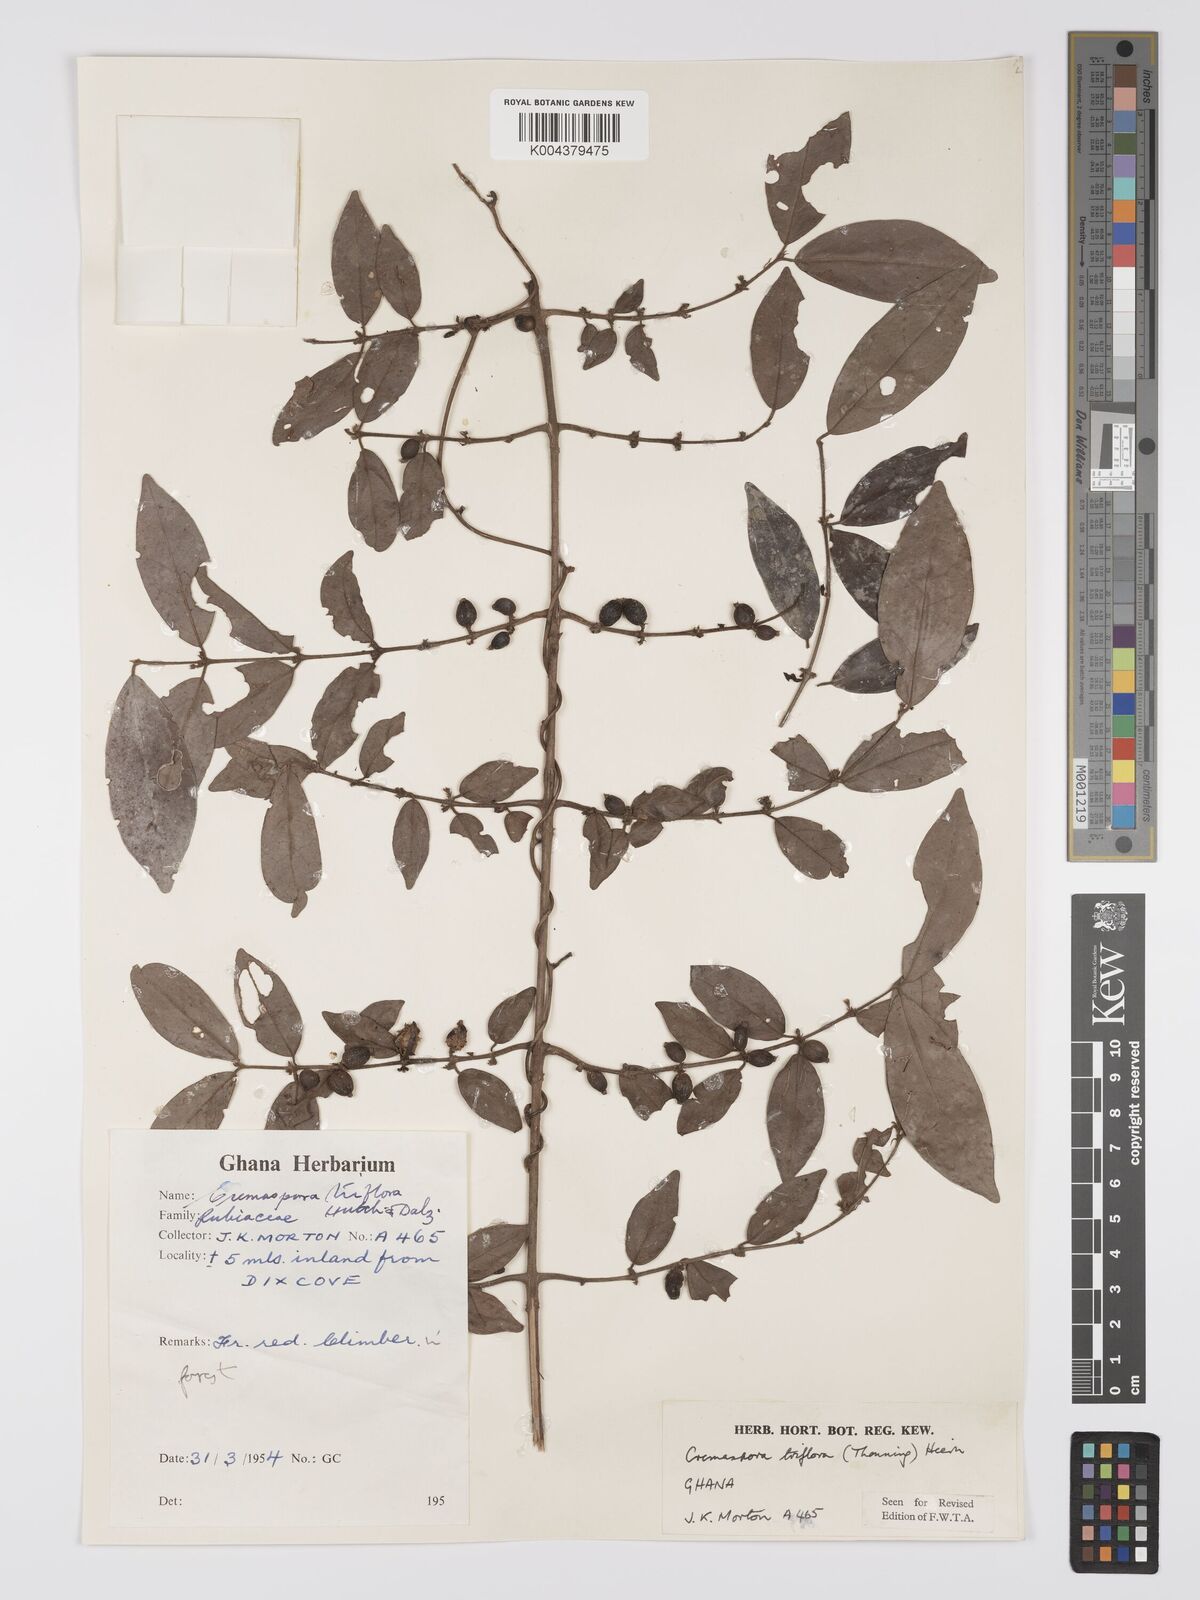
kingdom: Plantae
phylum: Tracheophyta
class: Magnoliopsida
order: Gentianales
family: Rubiaceae
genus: Cremaspora
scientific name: Cremaspora triflora
